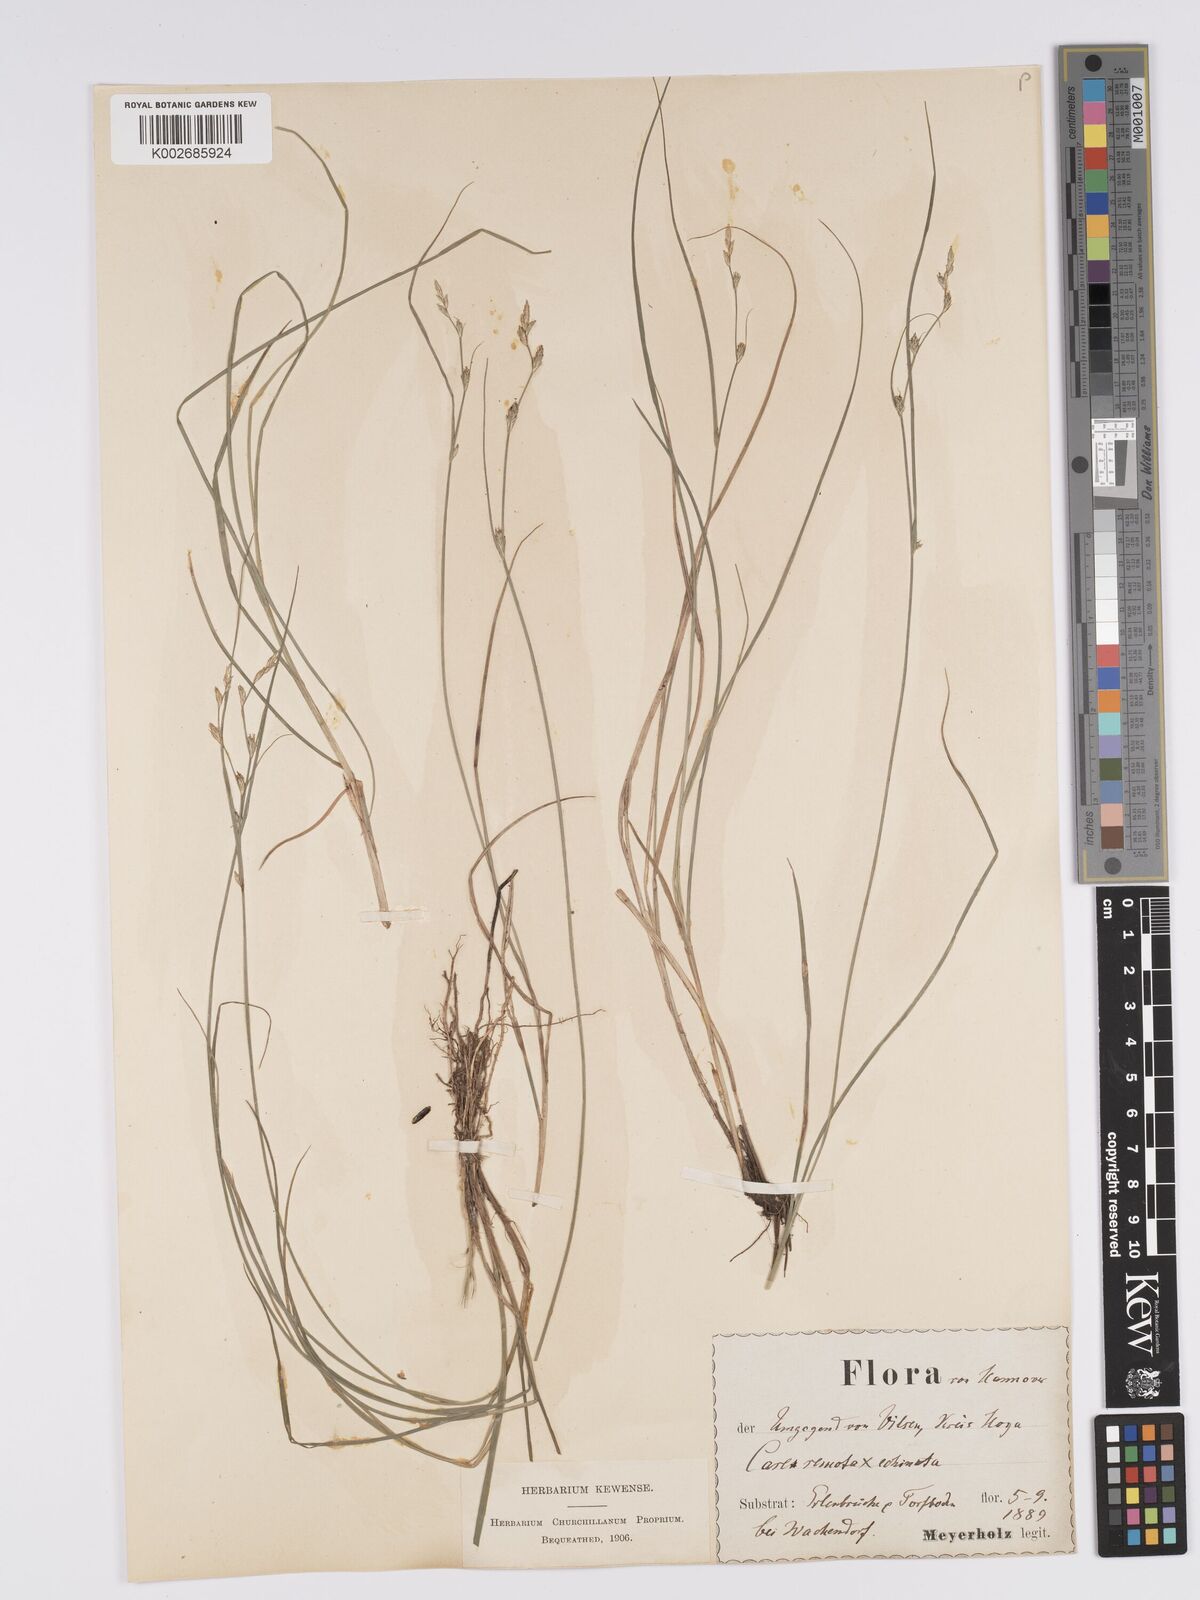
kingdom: Plantae
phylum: Tracheophyta
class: Liliopsida
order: Poales
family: Cyperaceae
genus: Carex
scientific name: Carex remota
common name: Remote sedge
